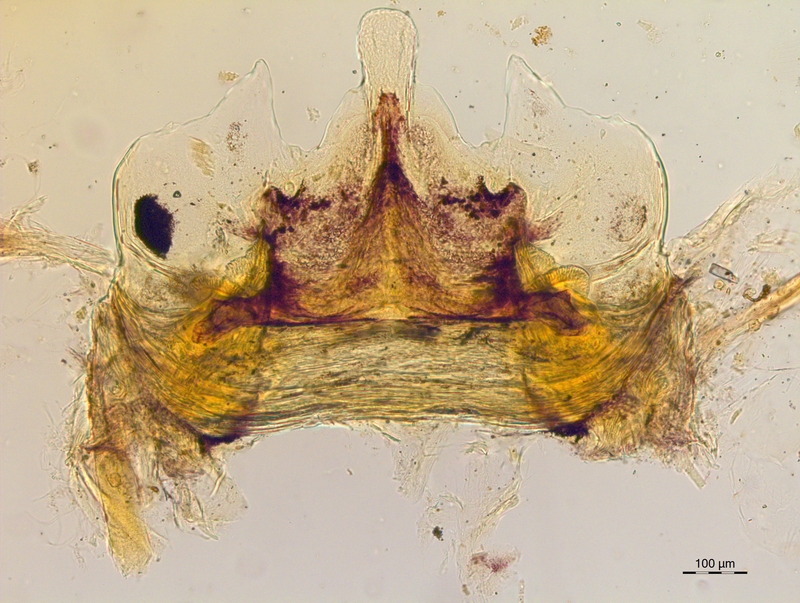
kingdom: Animalia
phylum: Arthropoda
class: Diplopoda
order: Chordeumatida
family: Craspedosomatidae
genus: Craspedosoma
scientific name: Craspedosoma taurinorum
